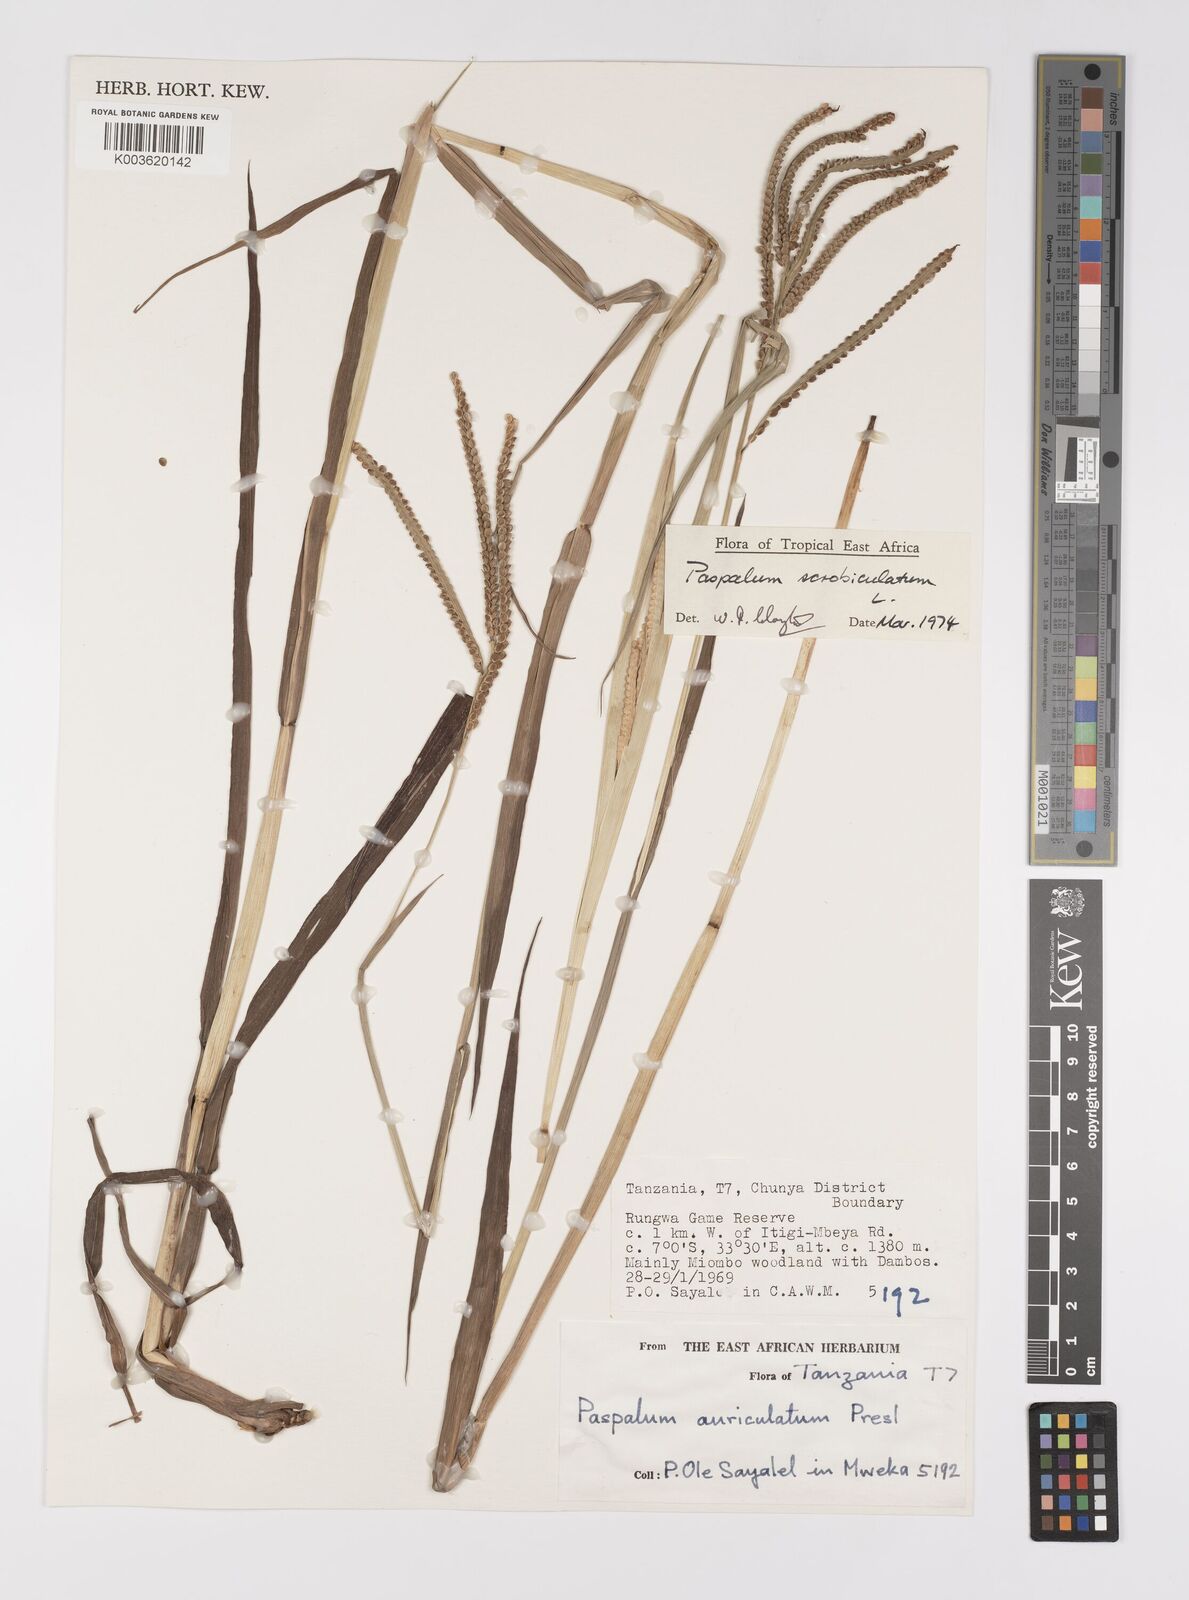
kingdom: Plantae
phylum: Tracheophyta
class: Liliopsida
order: Poales
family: Poaceae
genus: Paspalum
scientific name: Paspalum scrobiculatum
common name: Kodo millet
